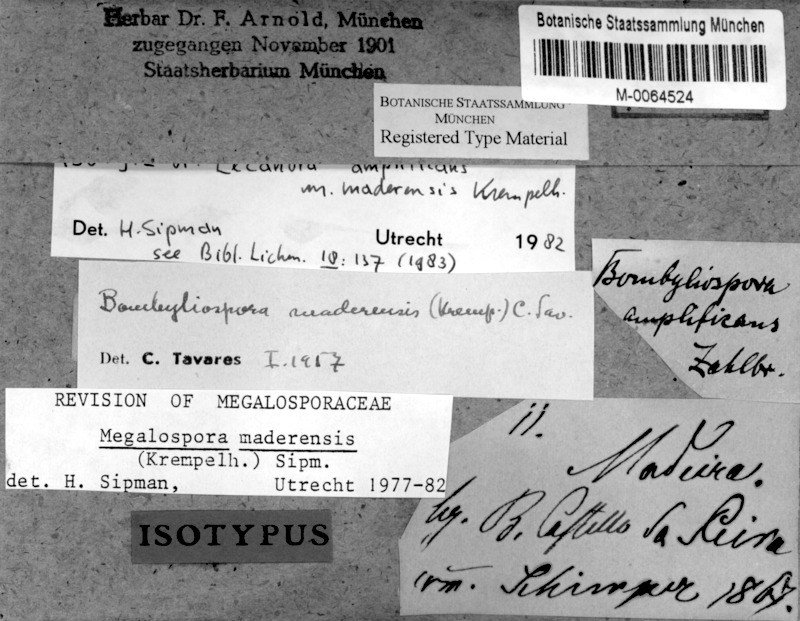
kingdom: Fungi
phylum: Ascomycota
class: Lecanoromycetes
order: Teloschistales
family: Megalosporaceae
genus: Megalospora
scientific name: Megalospora maderensis
